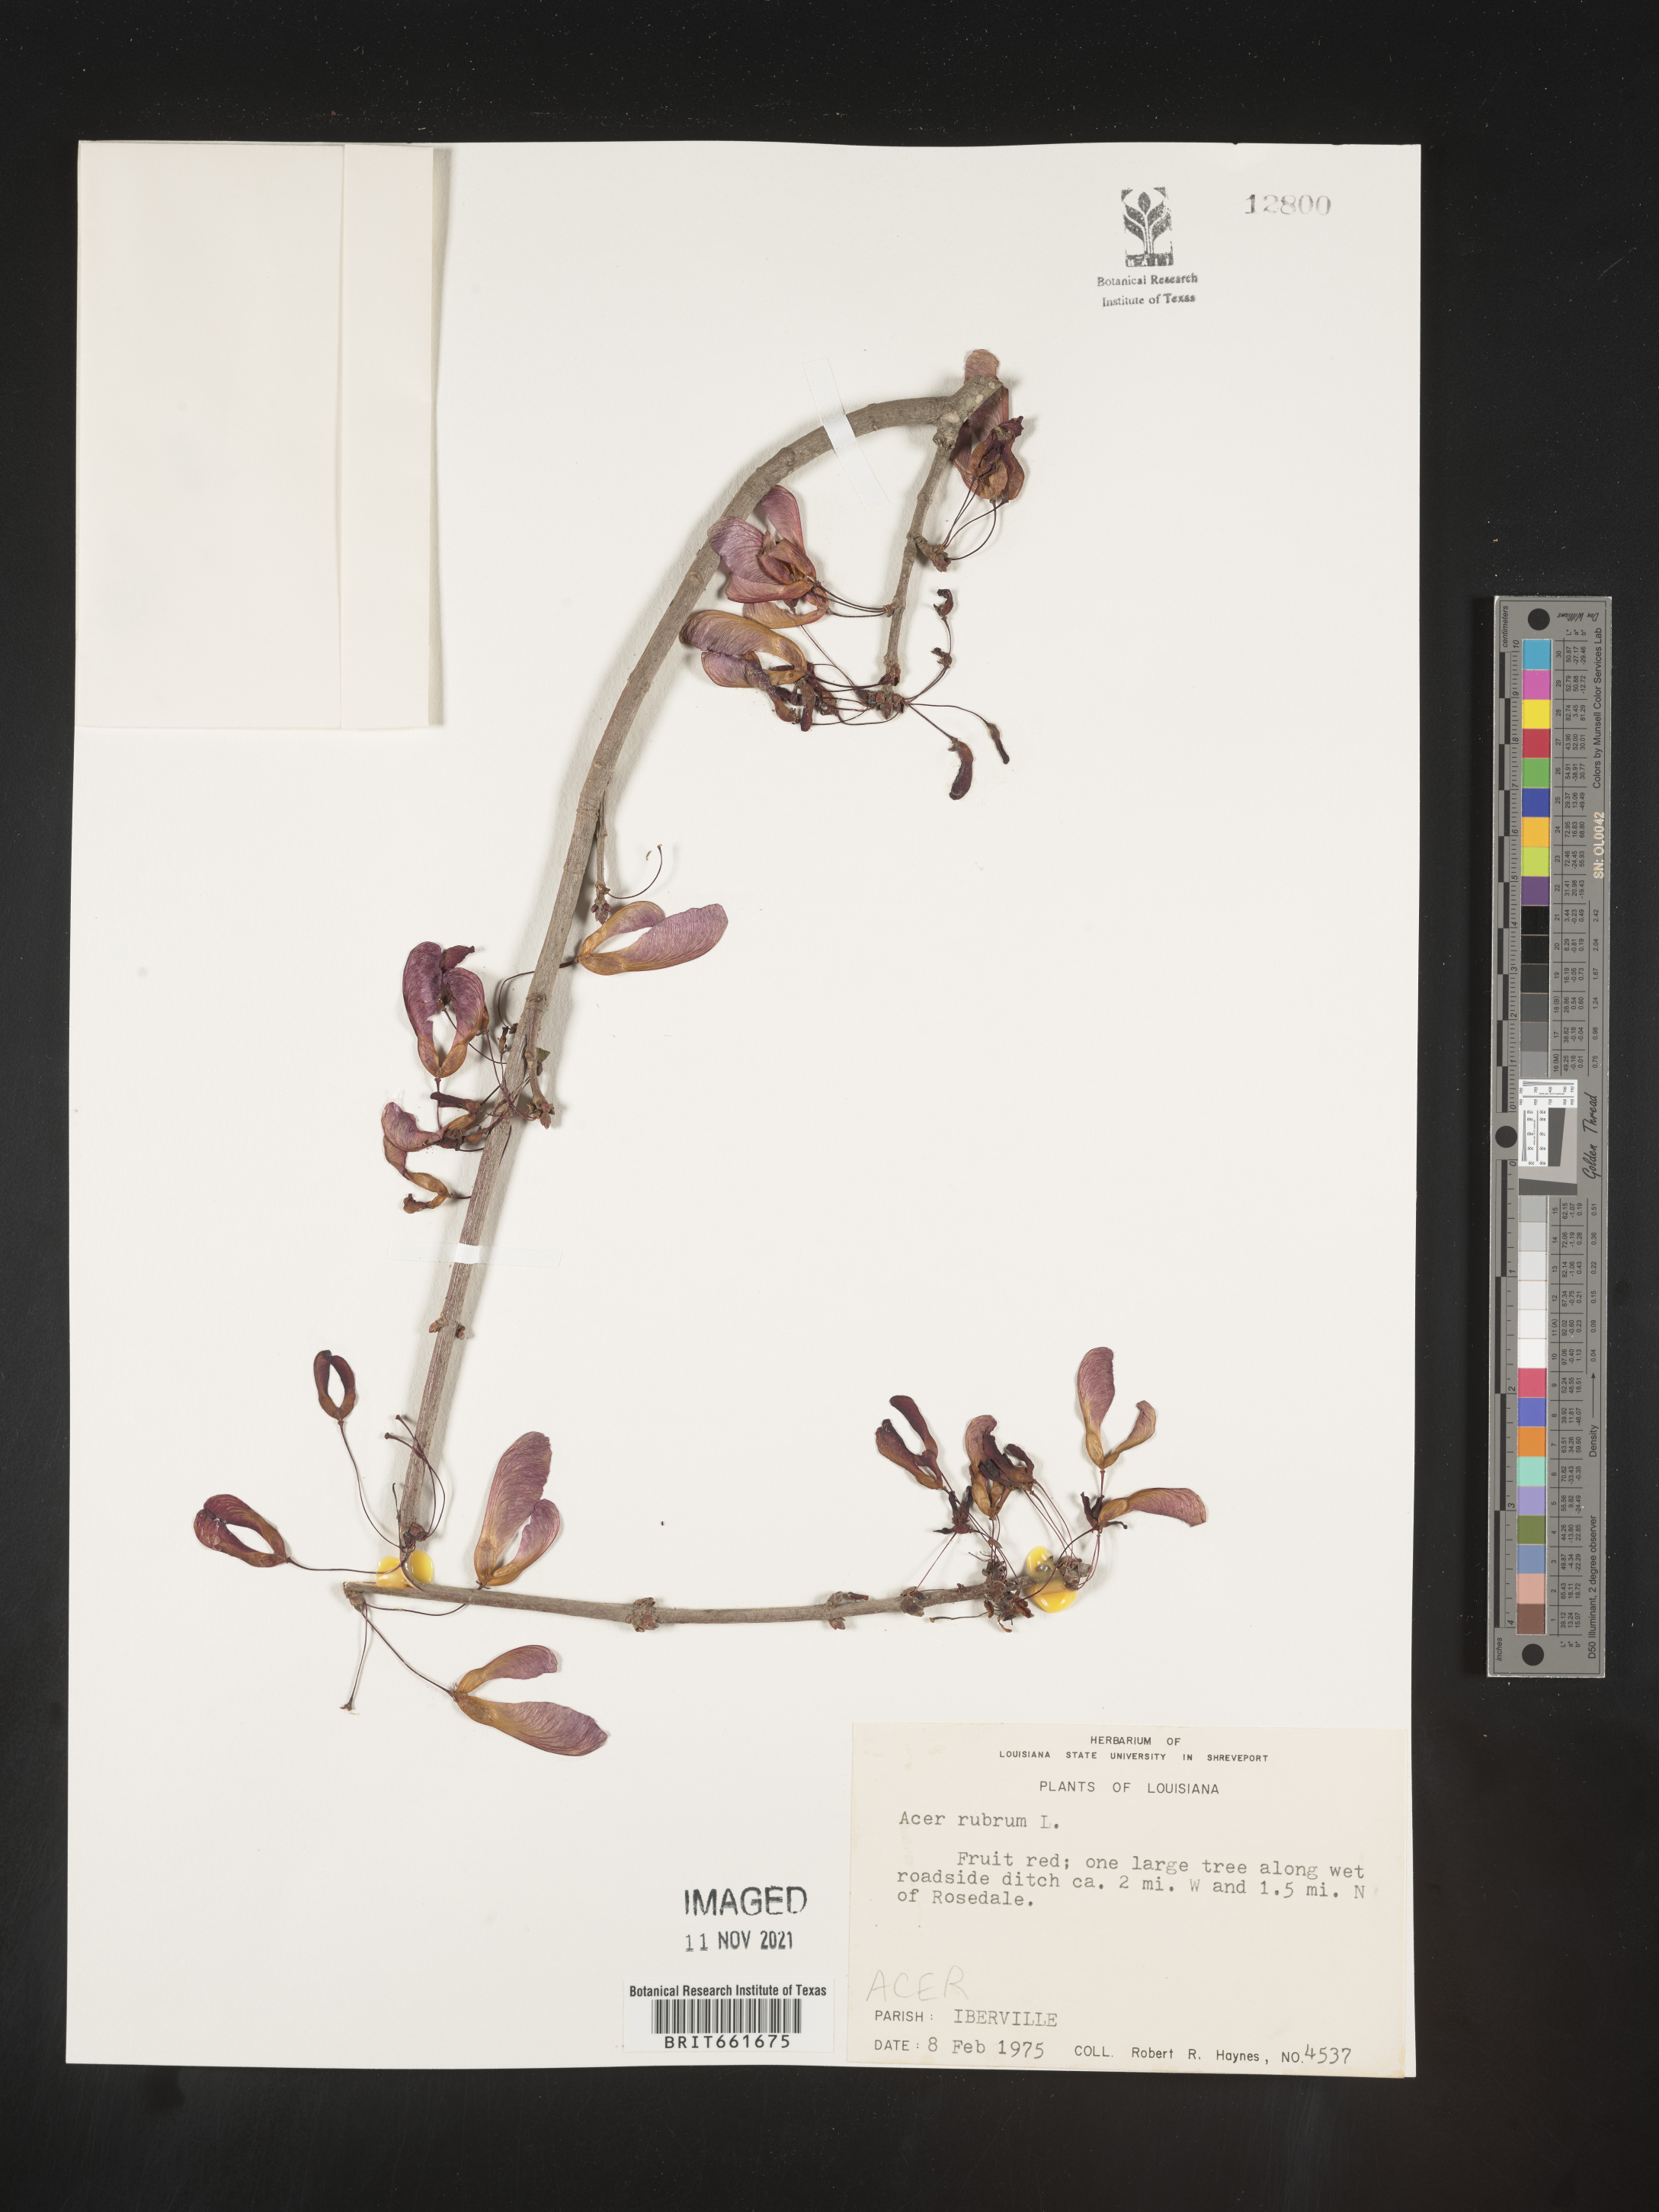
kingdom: Plantae
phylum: Tracheophyta
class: Magnoliopsida
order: Sapindales
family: Sapindaceae
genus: Acer
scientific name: Acer rubrum
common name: Red maple
